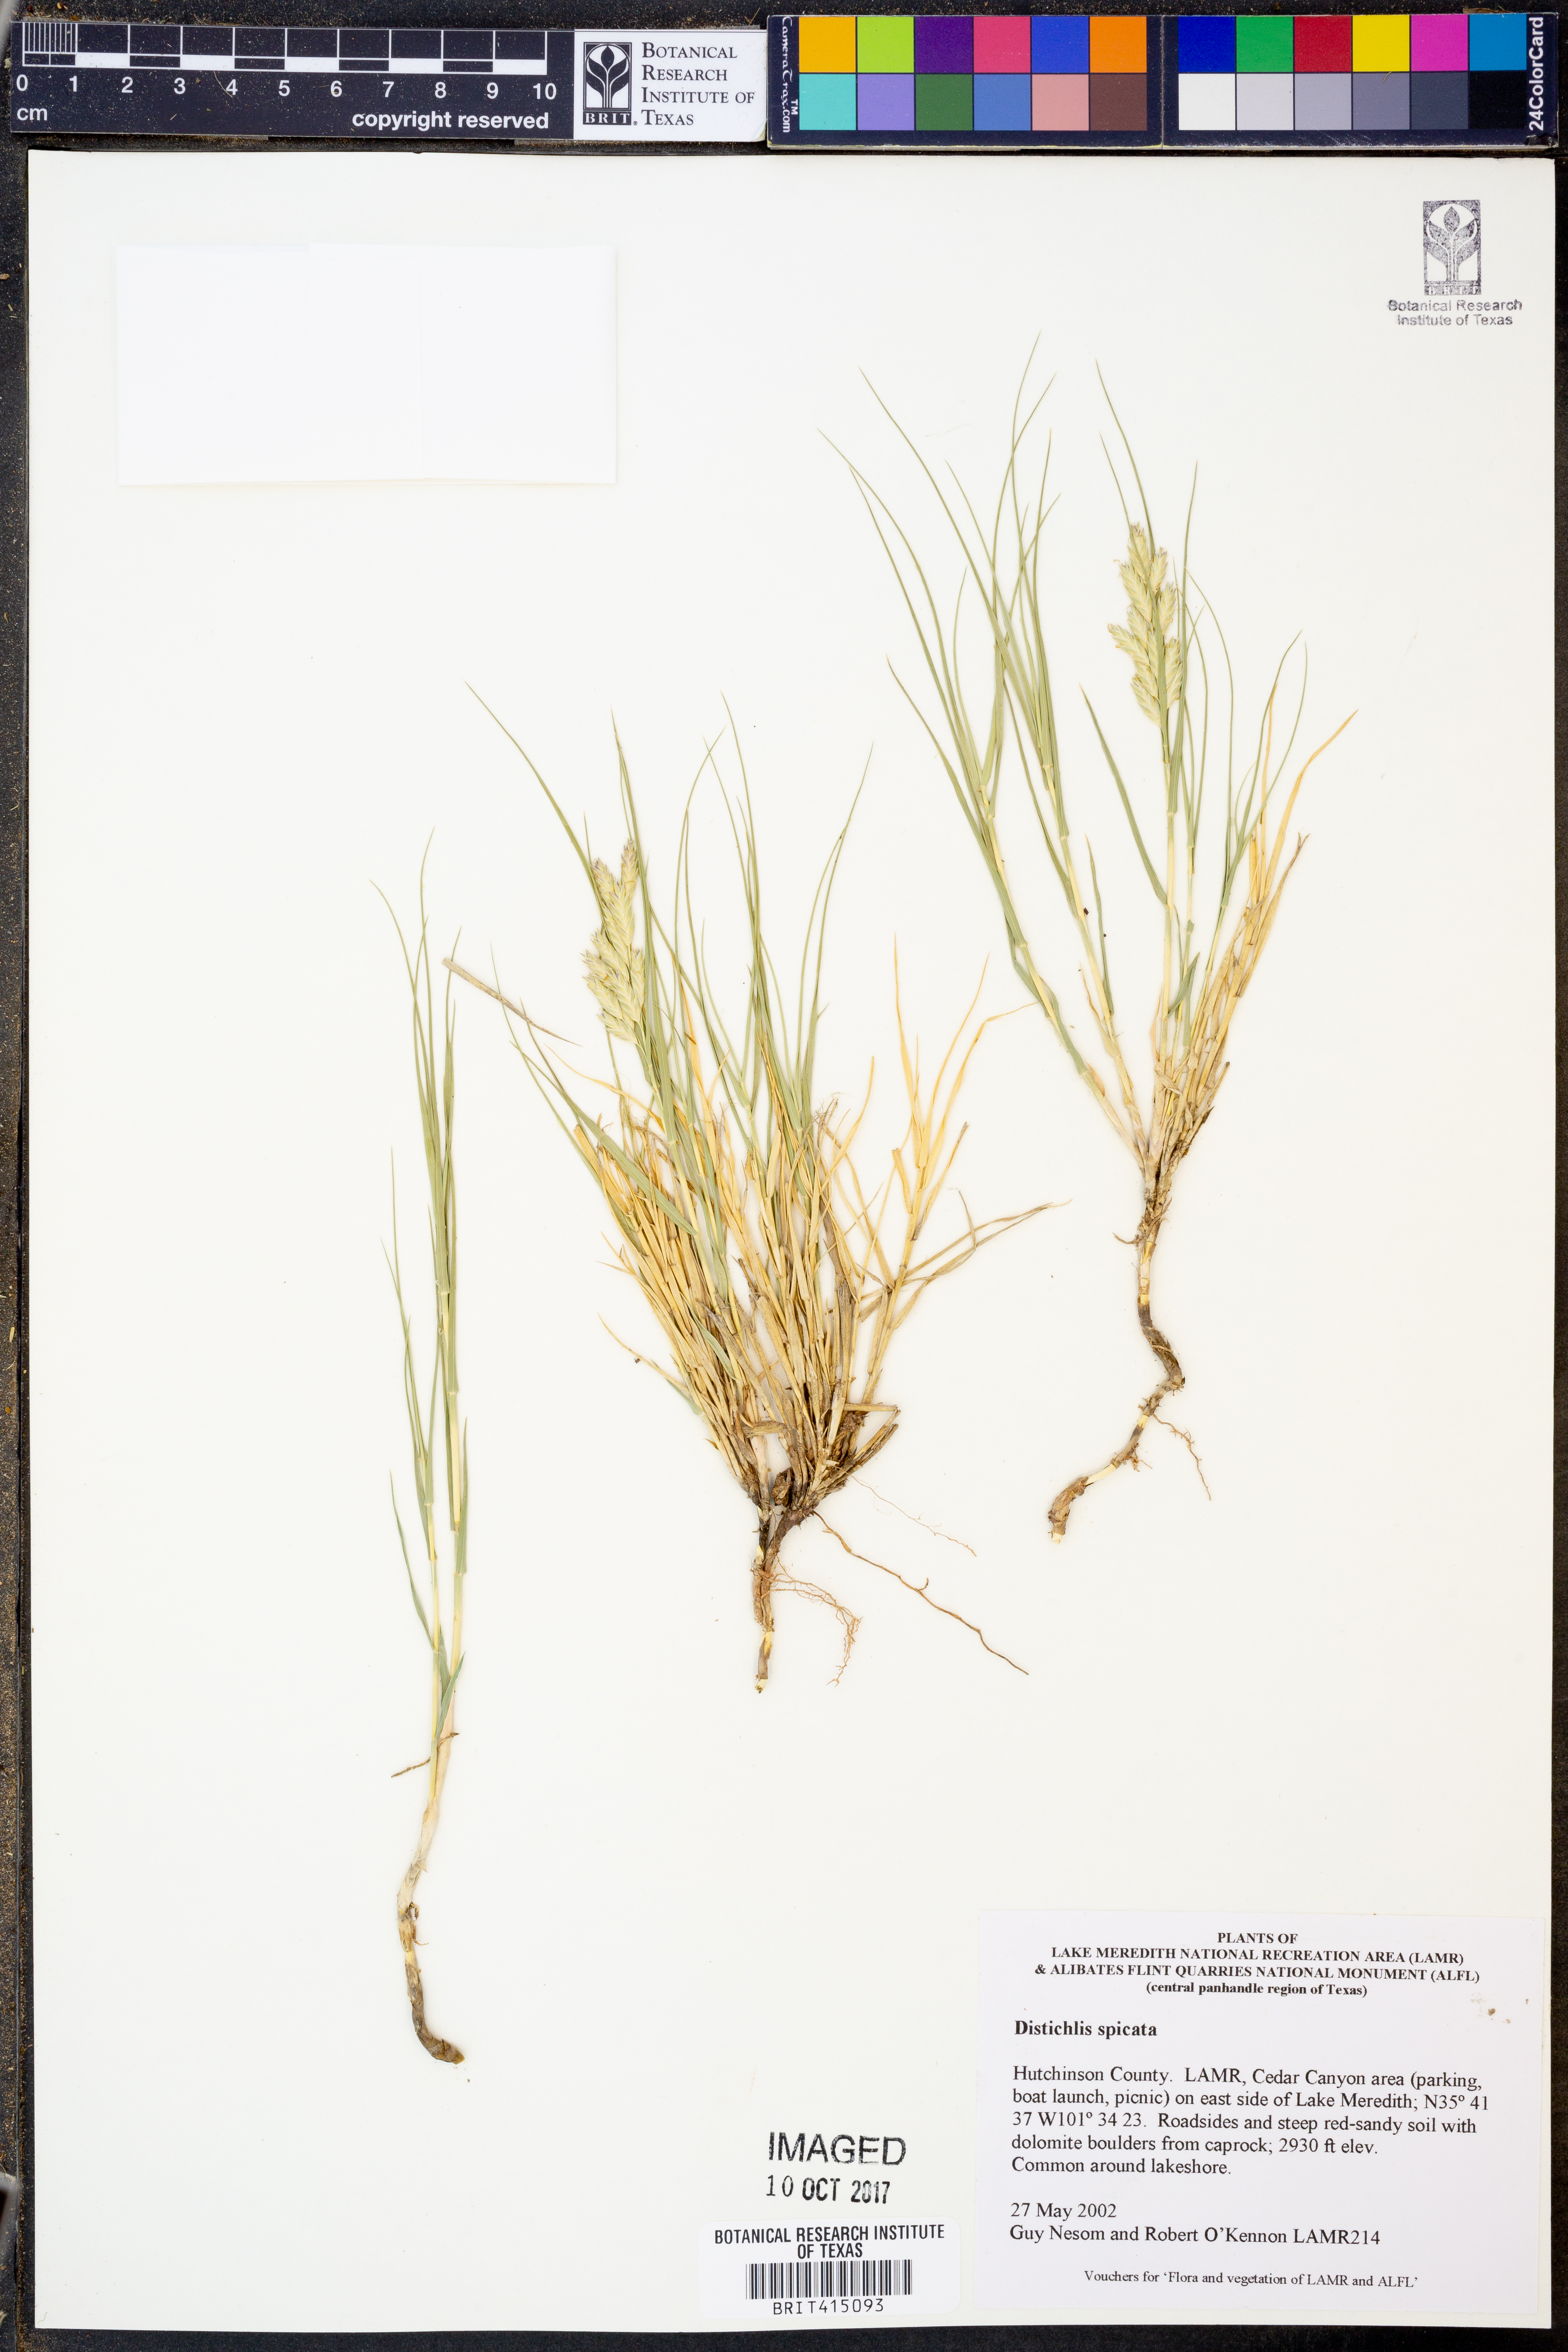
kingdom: Plantae
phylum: Tracheophyta
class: Liliopsida
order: Poales
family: Poaceae
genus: Distichlis
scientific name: Distichlis spicata
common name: Saltgrass
